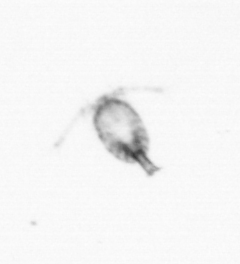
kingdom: Animalia
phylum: Arthropoda
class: Copepoda
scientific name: Copepoda
